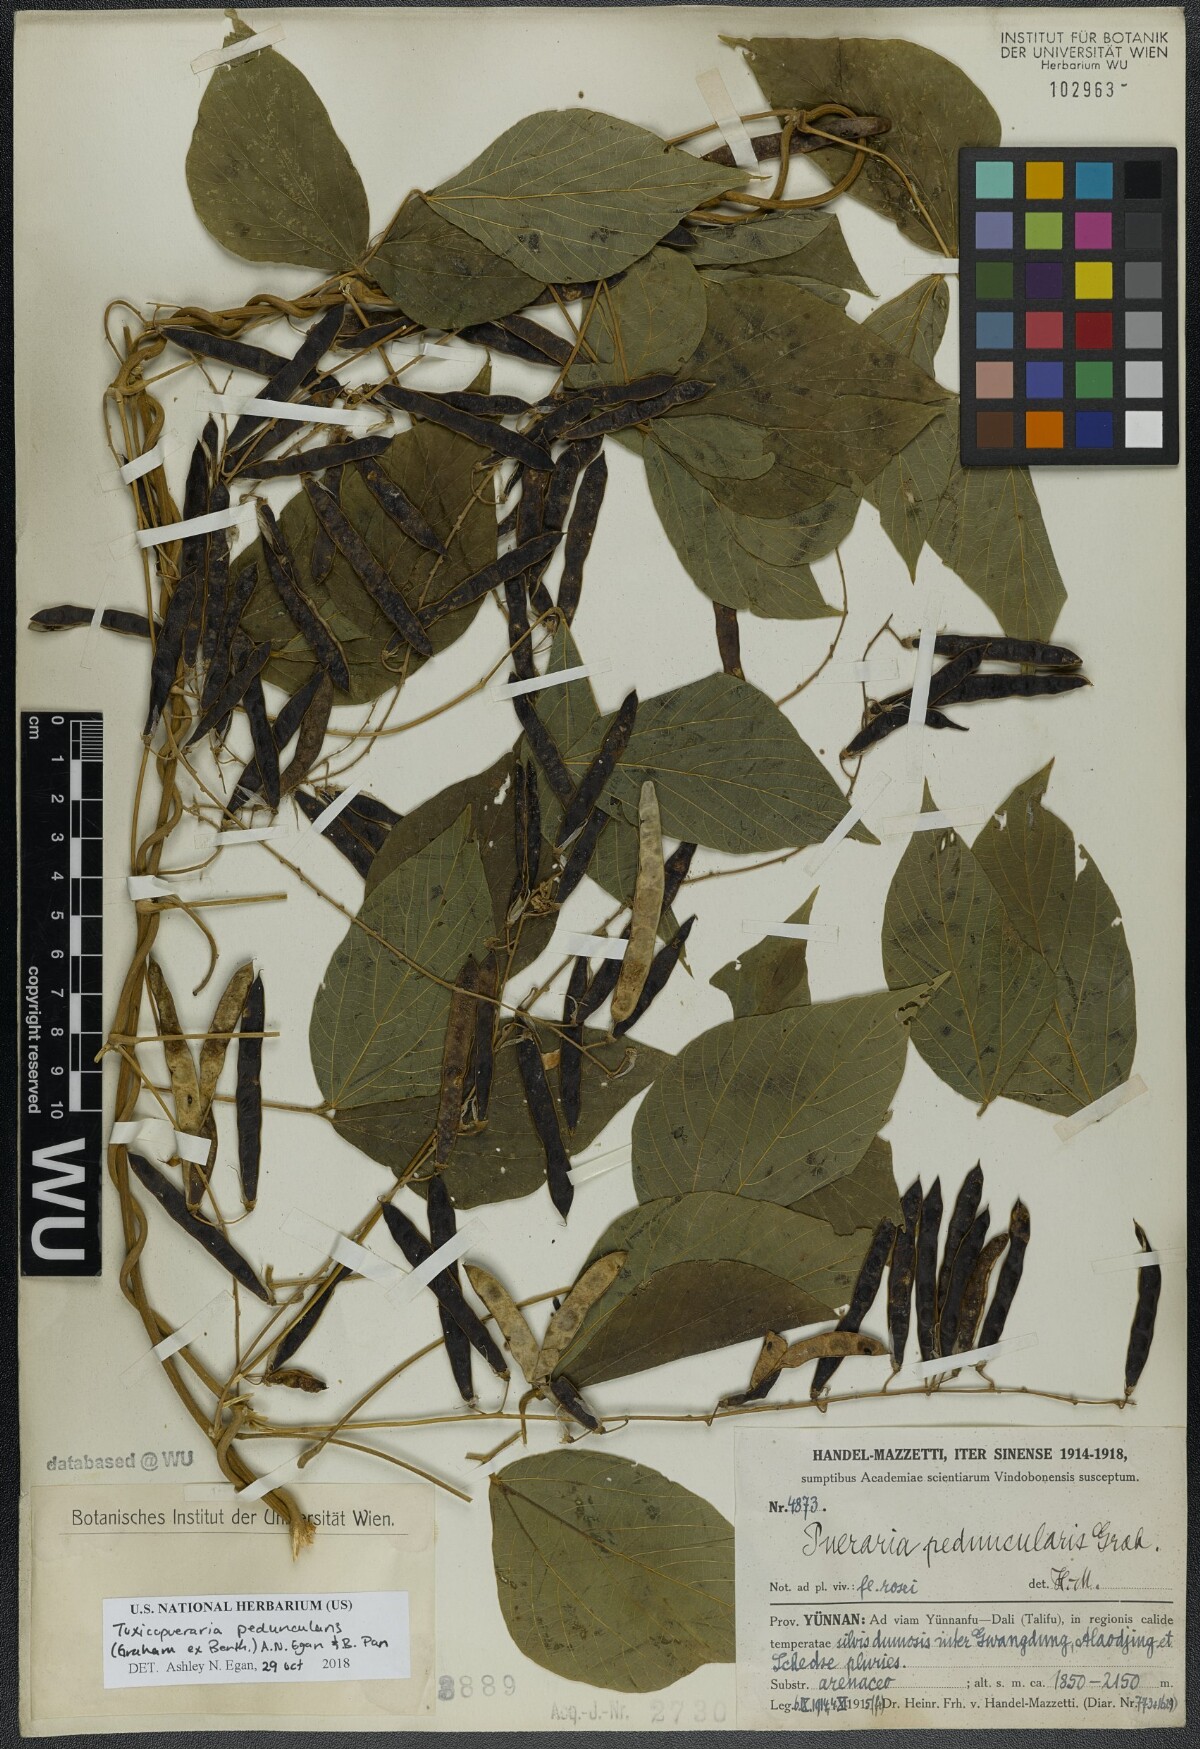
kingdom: Plantae
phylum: Tracheophyta
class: Magnoliopsida
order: Fabales
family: Fabaceae
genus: Toxicopueraria
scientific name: Toxicopueraria peduncularis
